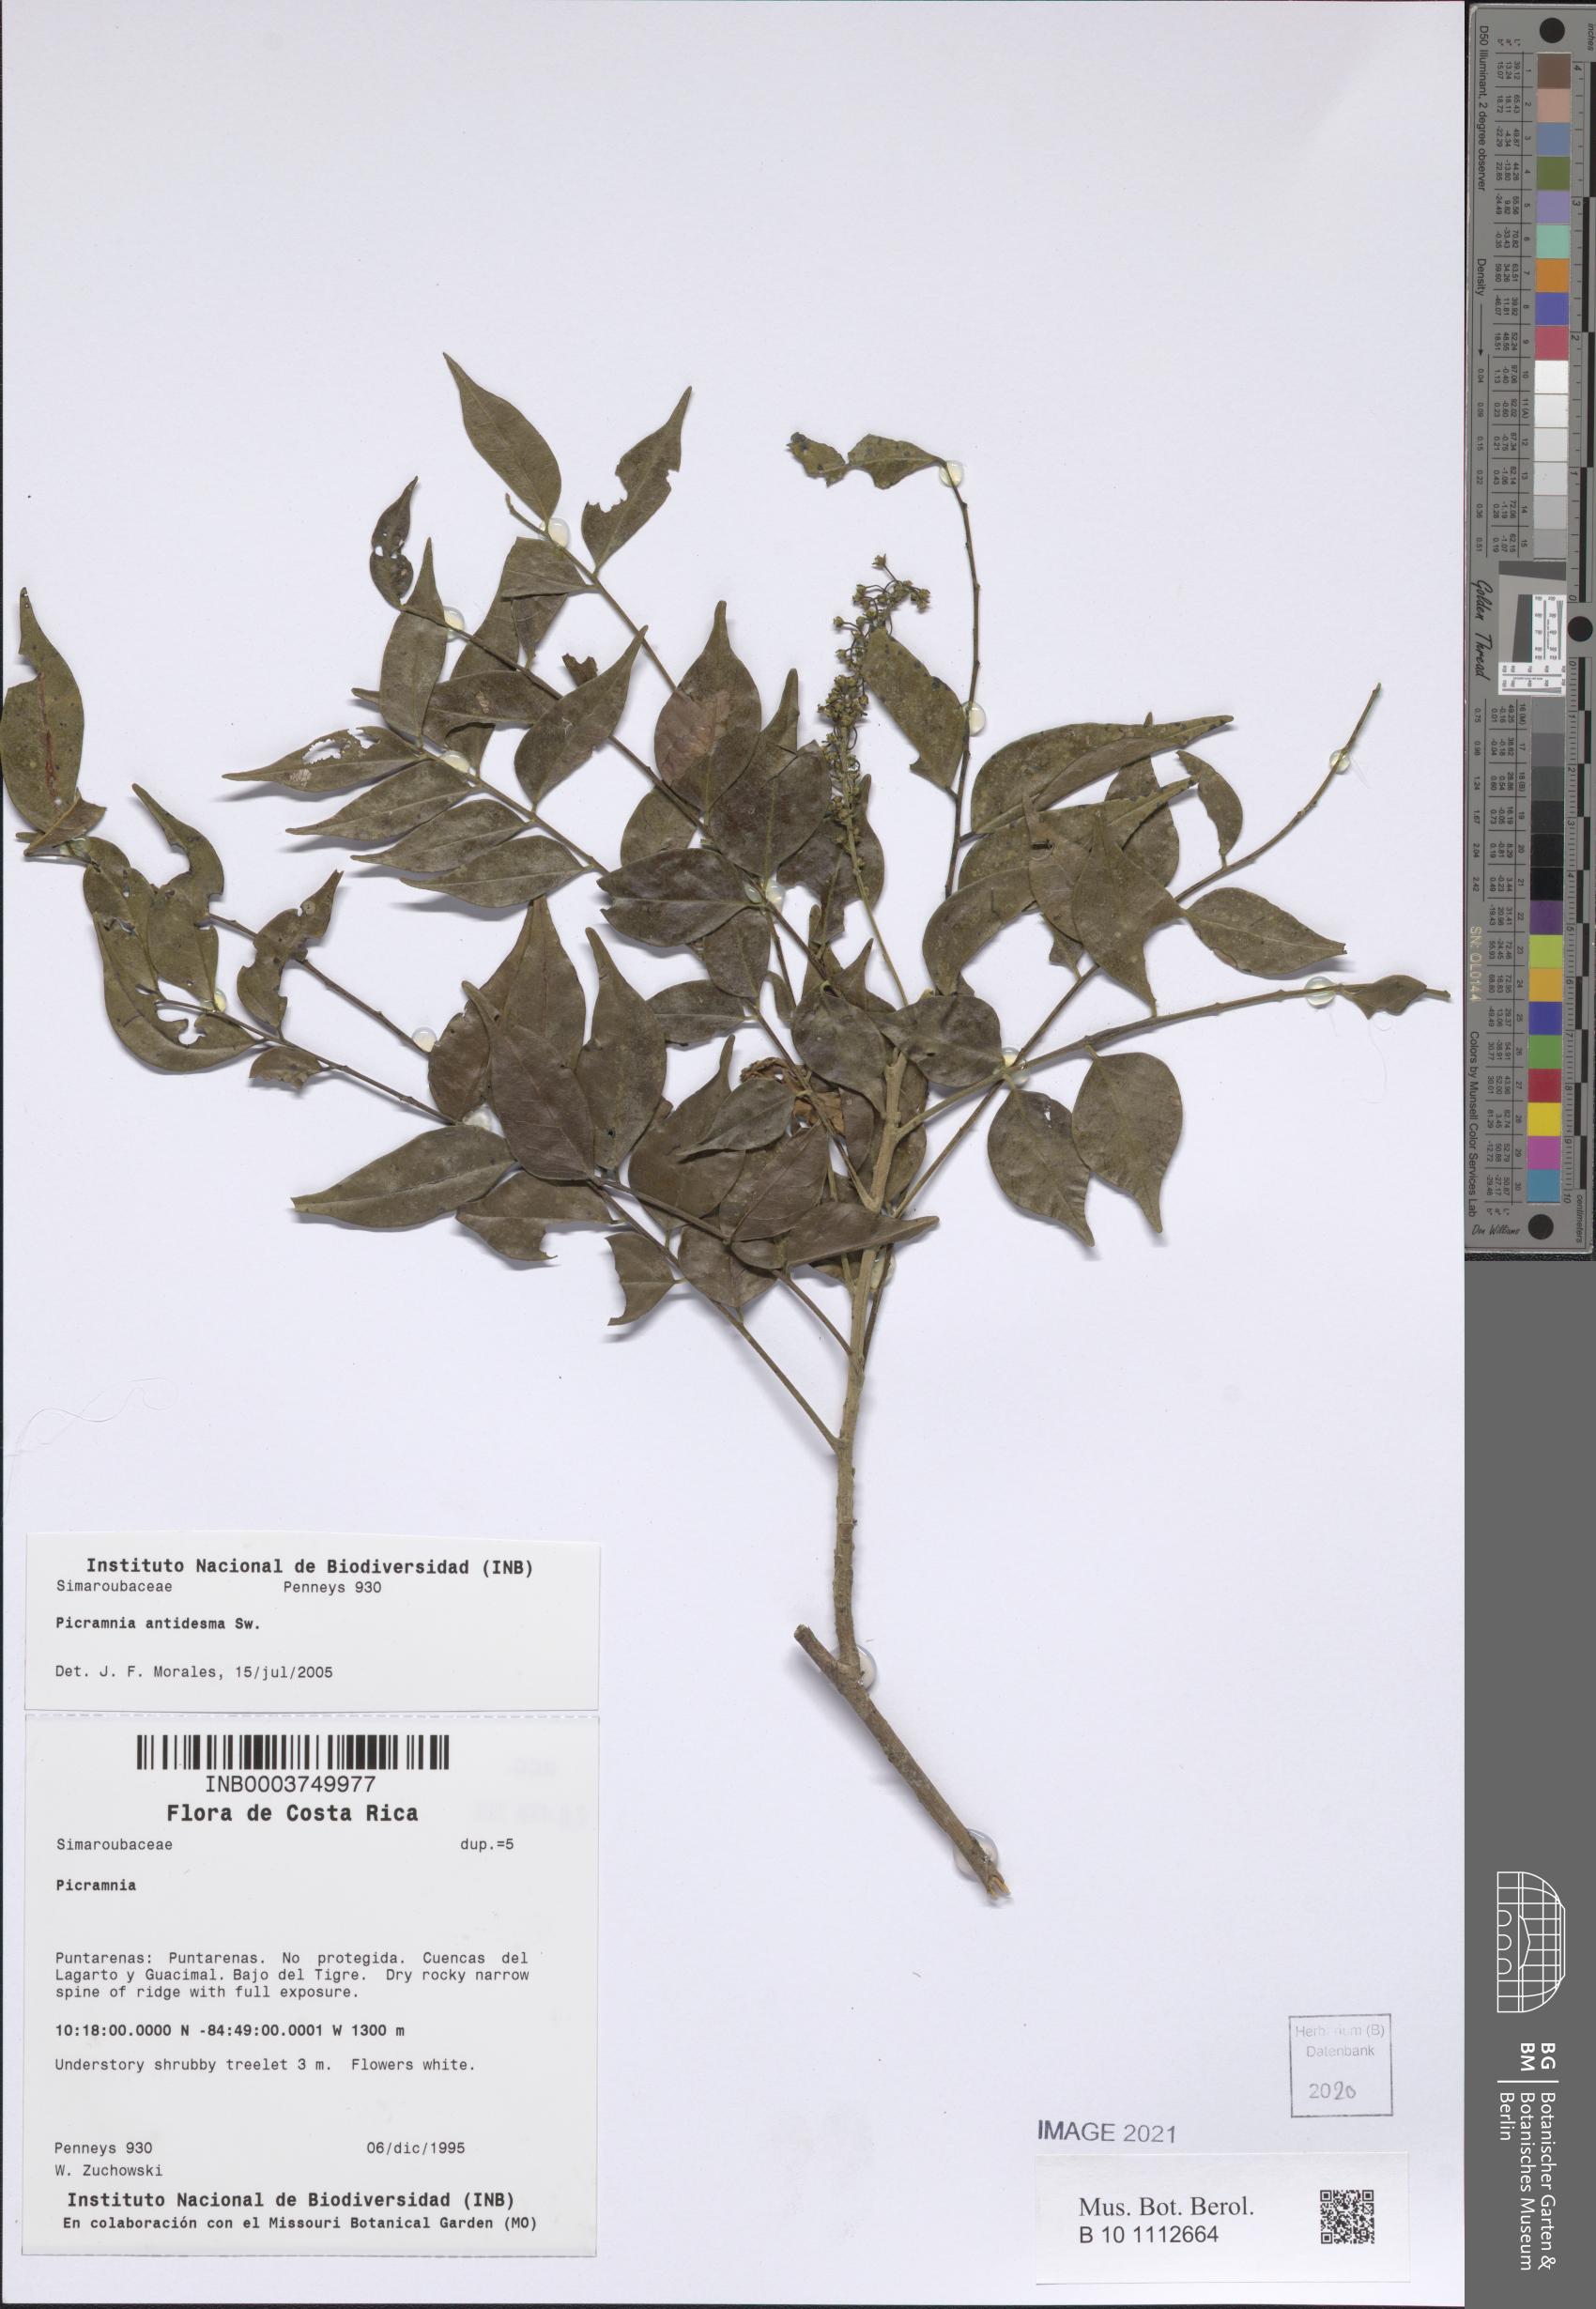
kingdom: Plantae
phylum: Tracheophyta
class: Magnoliopsida
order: Picramniales
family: Picramniaceae
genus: Picramnia
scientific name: Picramnia antidesma
